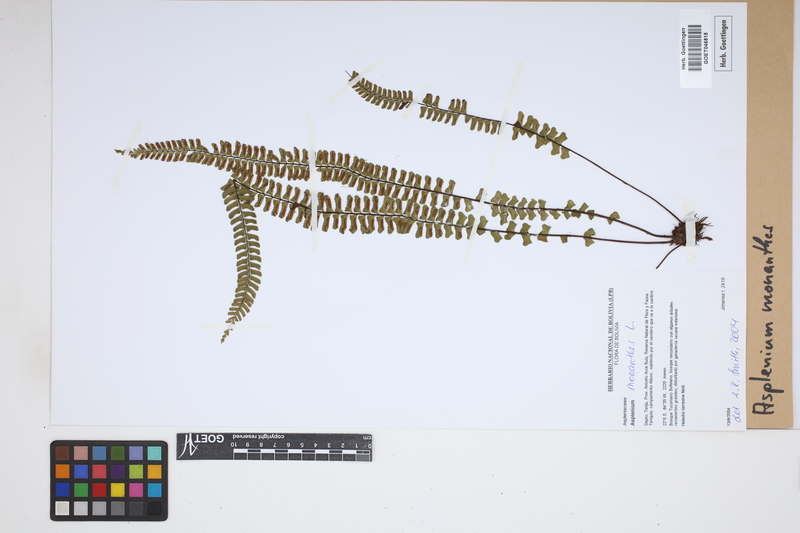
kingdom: Plantae
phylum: Tracheophyta
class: Polypodiopsida
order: Polypodiales
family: Aspleniaceae
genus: Asplenium
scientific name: Asplenium monanthes
